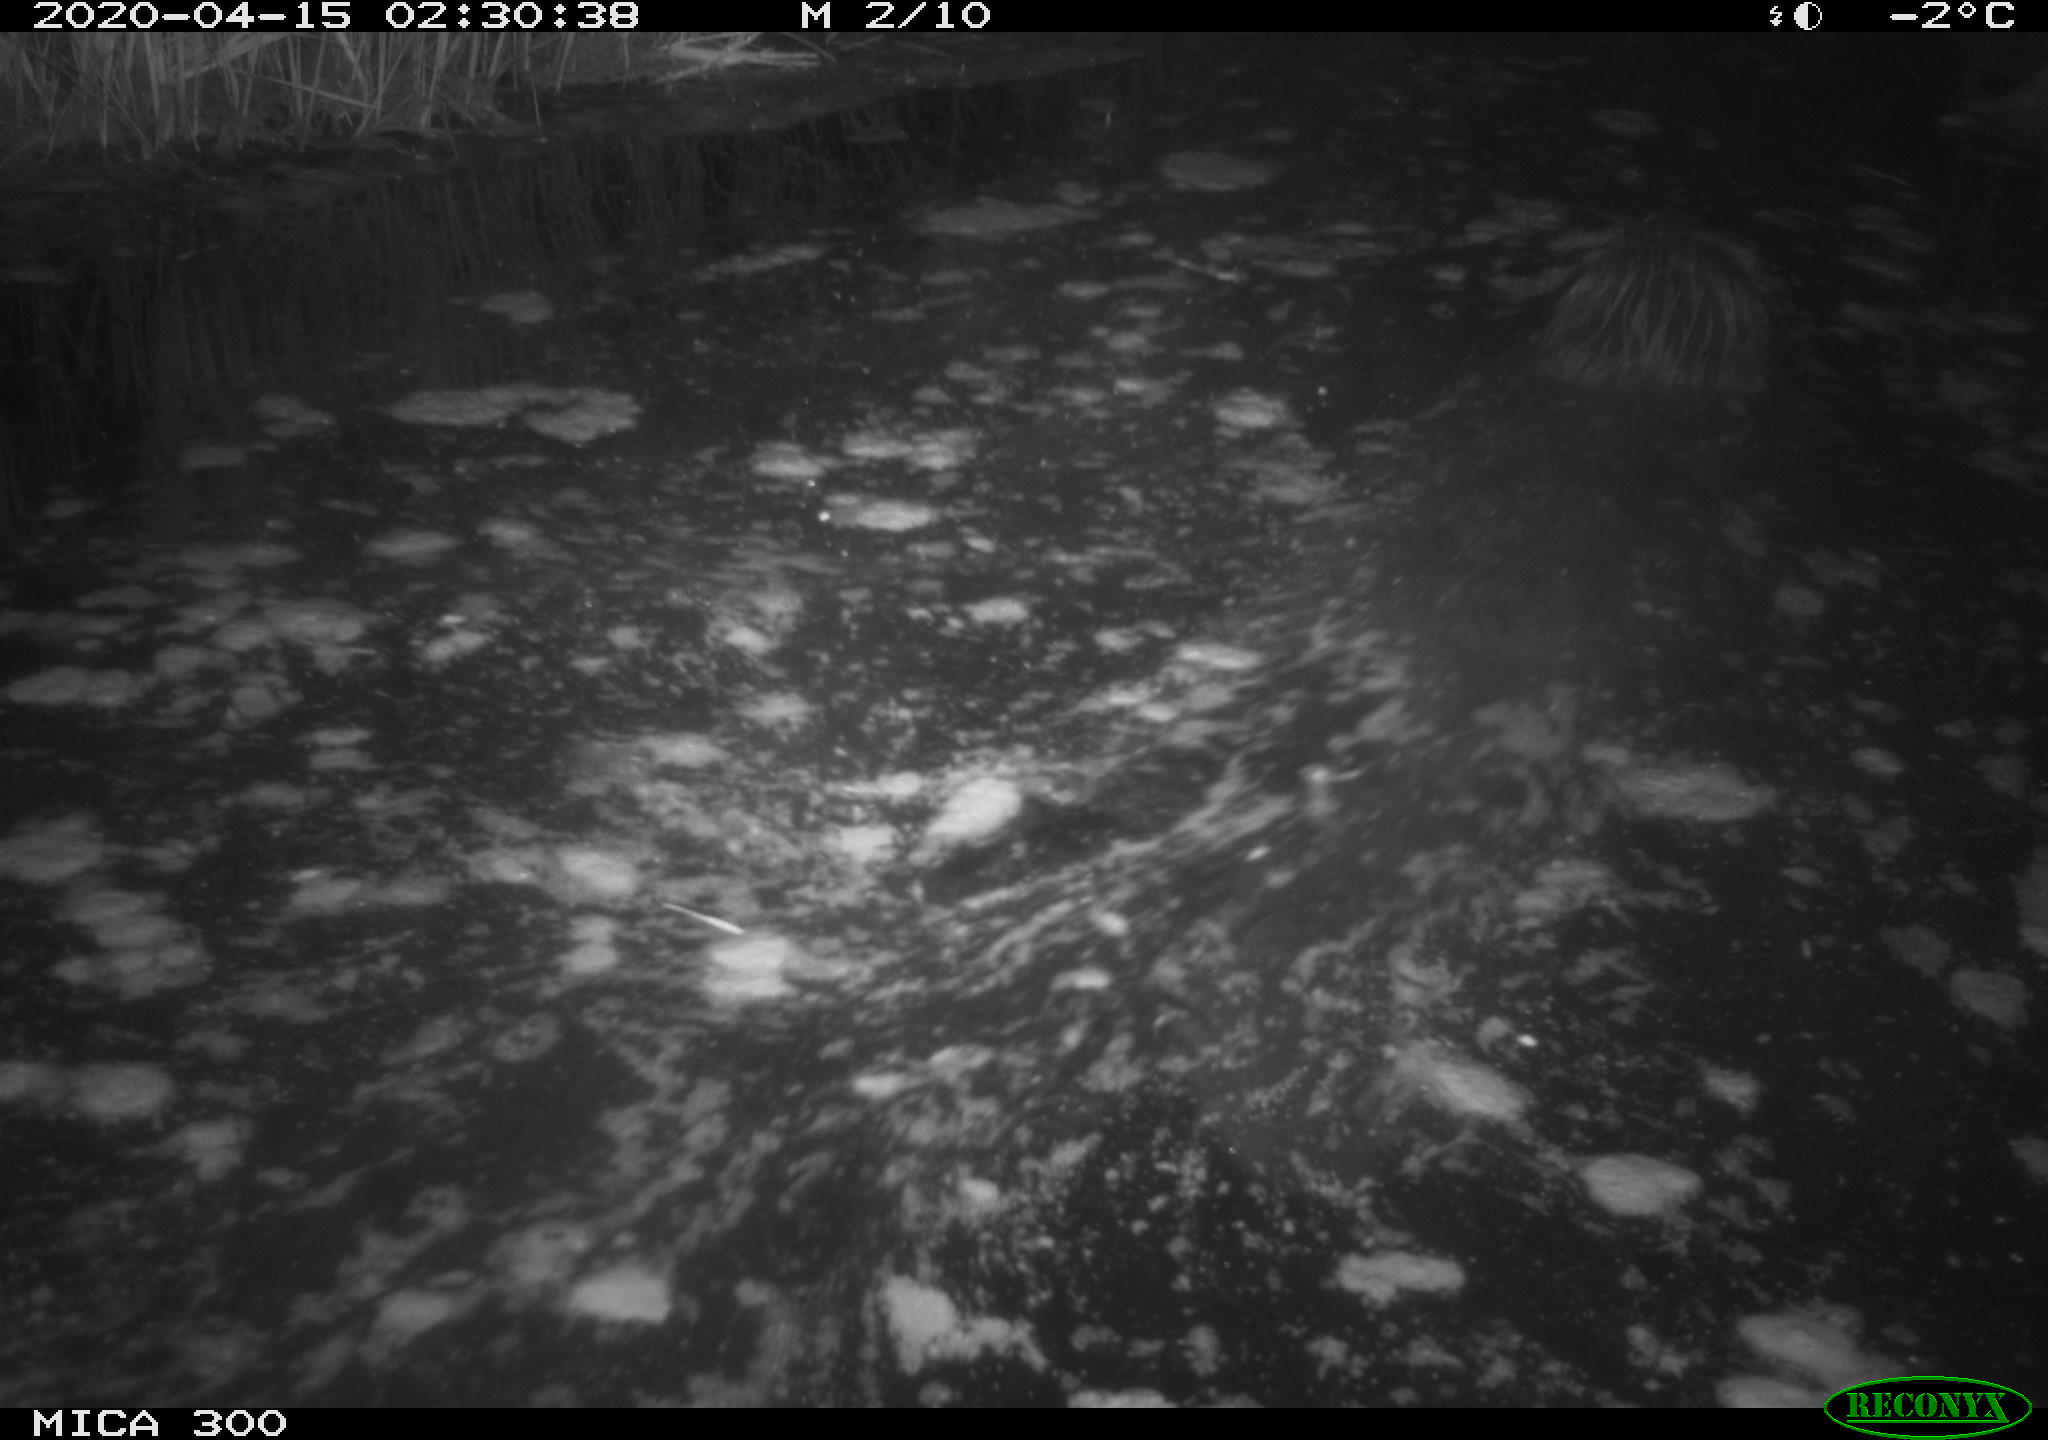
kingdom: Animalia
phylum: Chordata
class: Mammalia
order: Rodentia
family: Castoridae
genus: Castor
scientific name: Castor fiber
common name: Eurasian beaver
